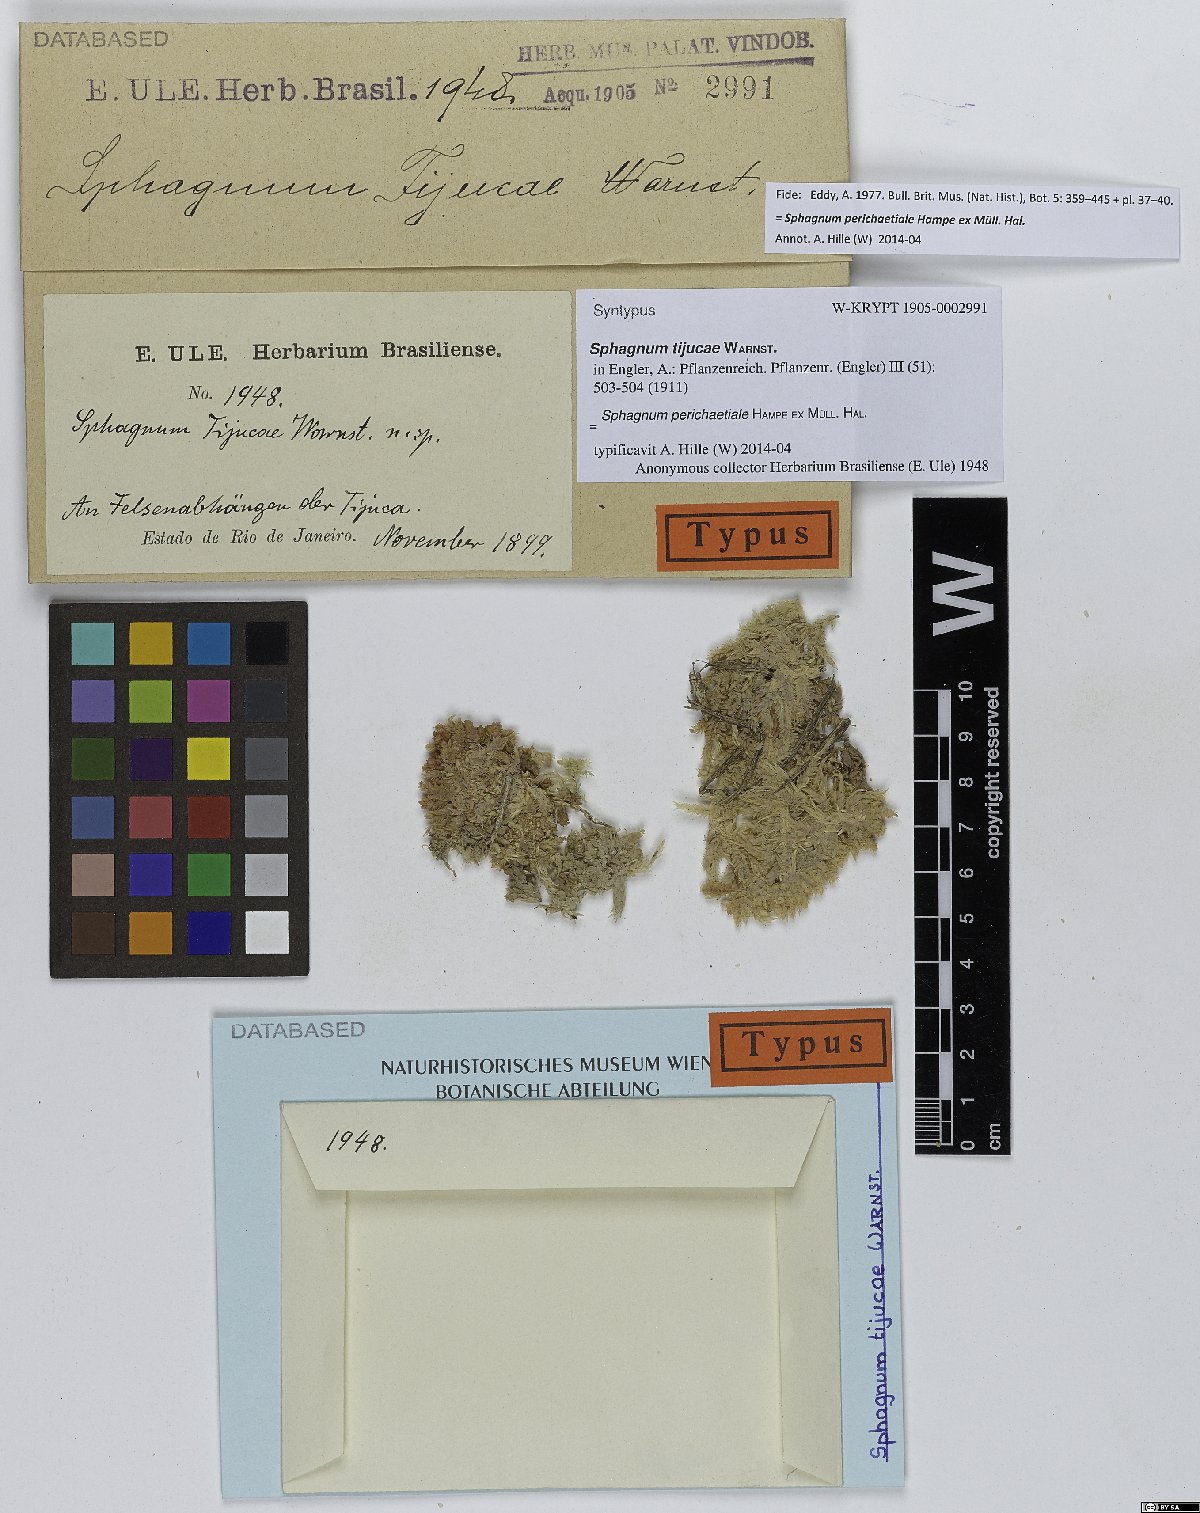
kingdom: Plantae
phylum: Bryophyta
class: Sphagnopsida
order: Sphagnales
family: Sphagnaceae
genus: Sphagnum
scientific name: Sphagnum perichaetiale
